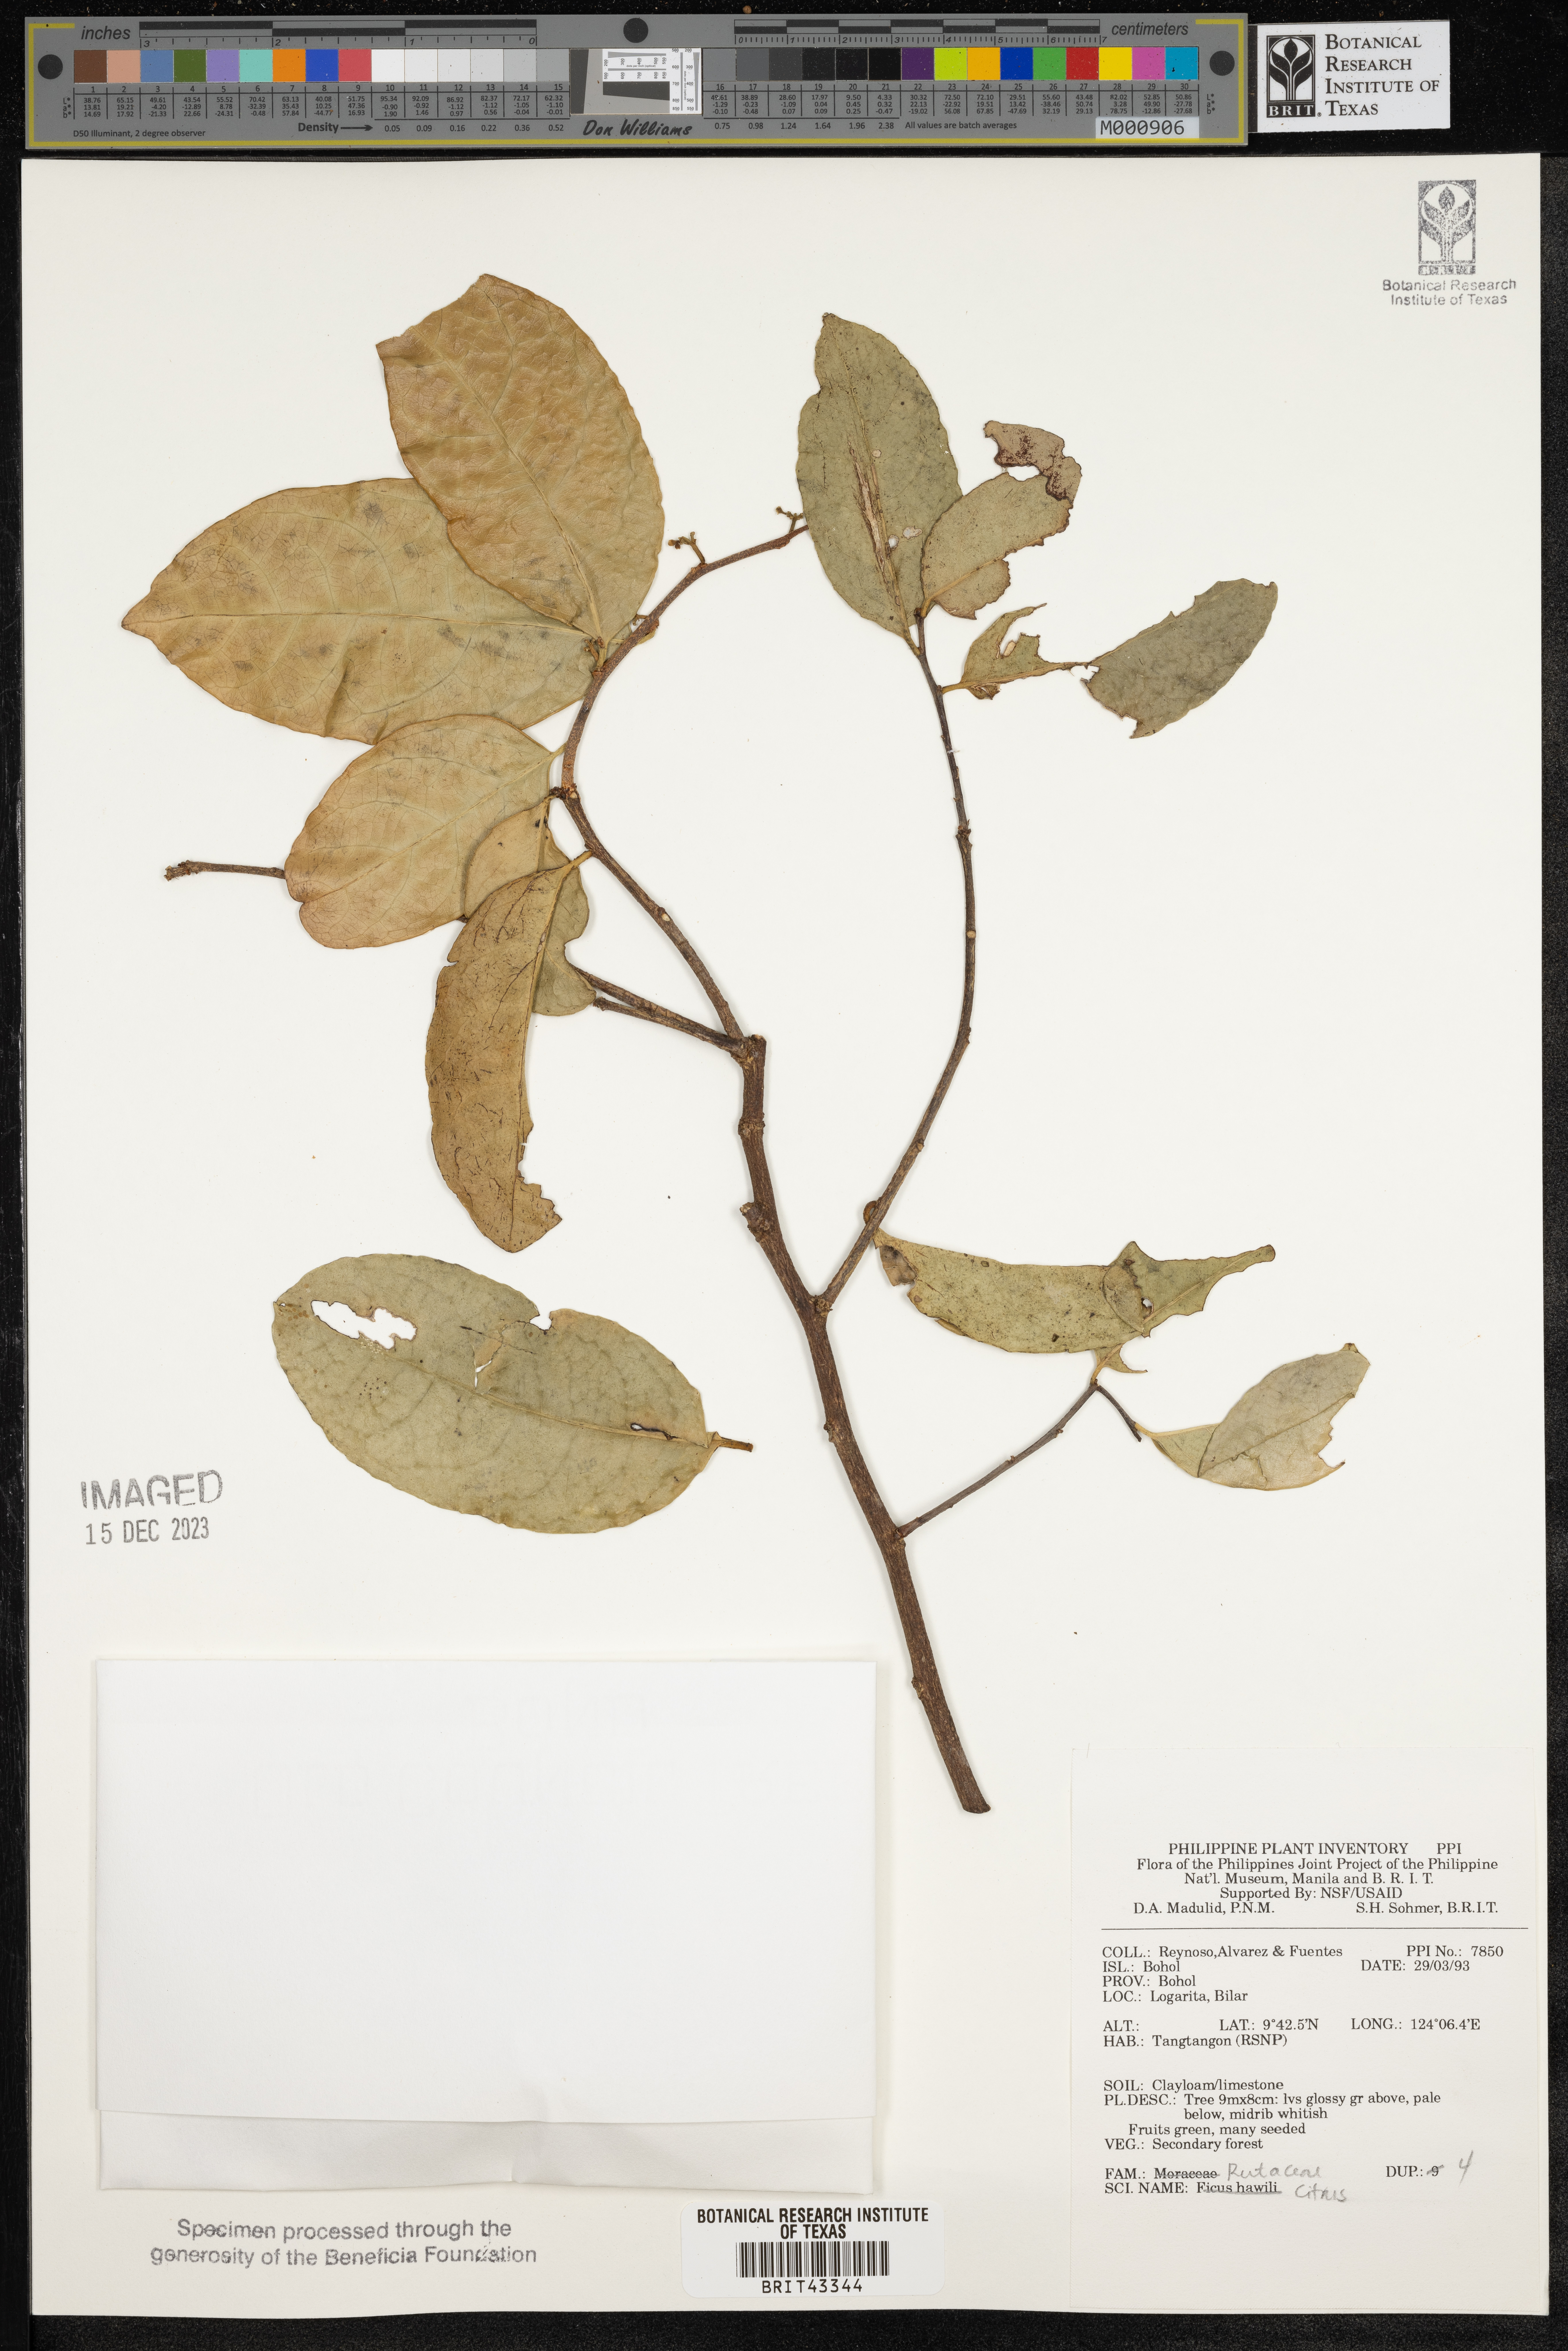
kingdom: Plantae
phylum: Tracheophyta
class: Magnoliopsida
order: Sapindales
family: Rutaceae
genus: Citrus
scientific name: Citrus
